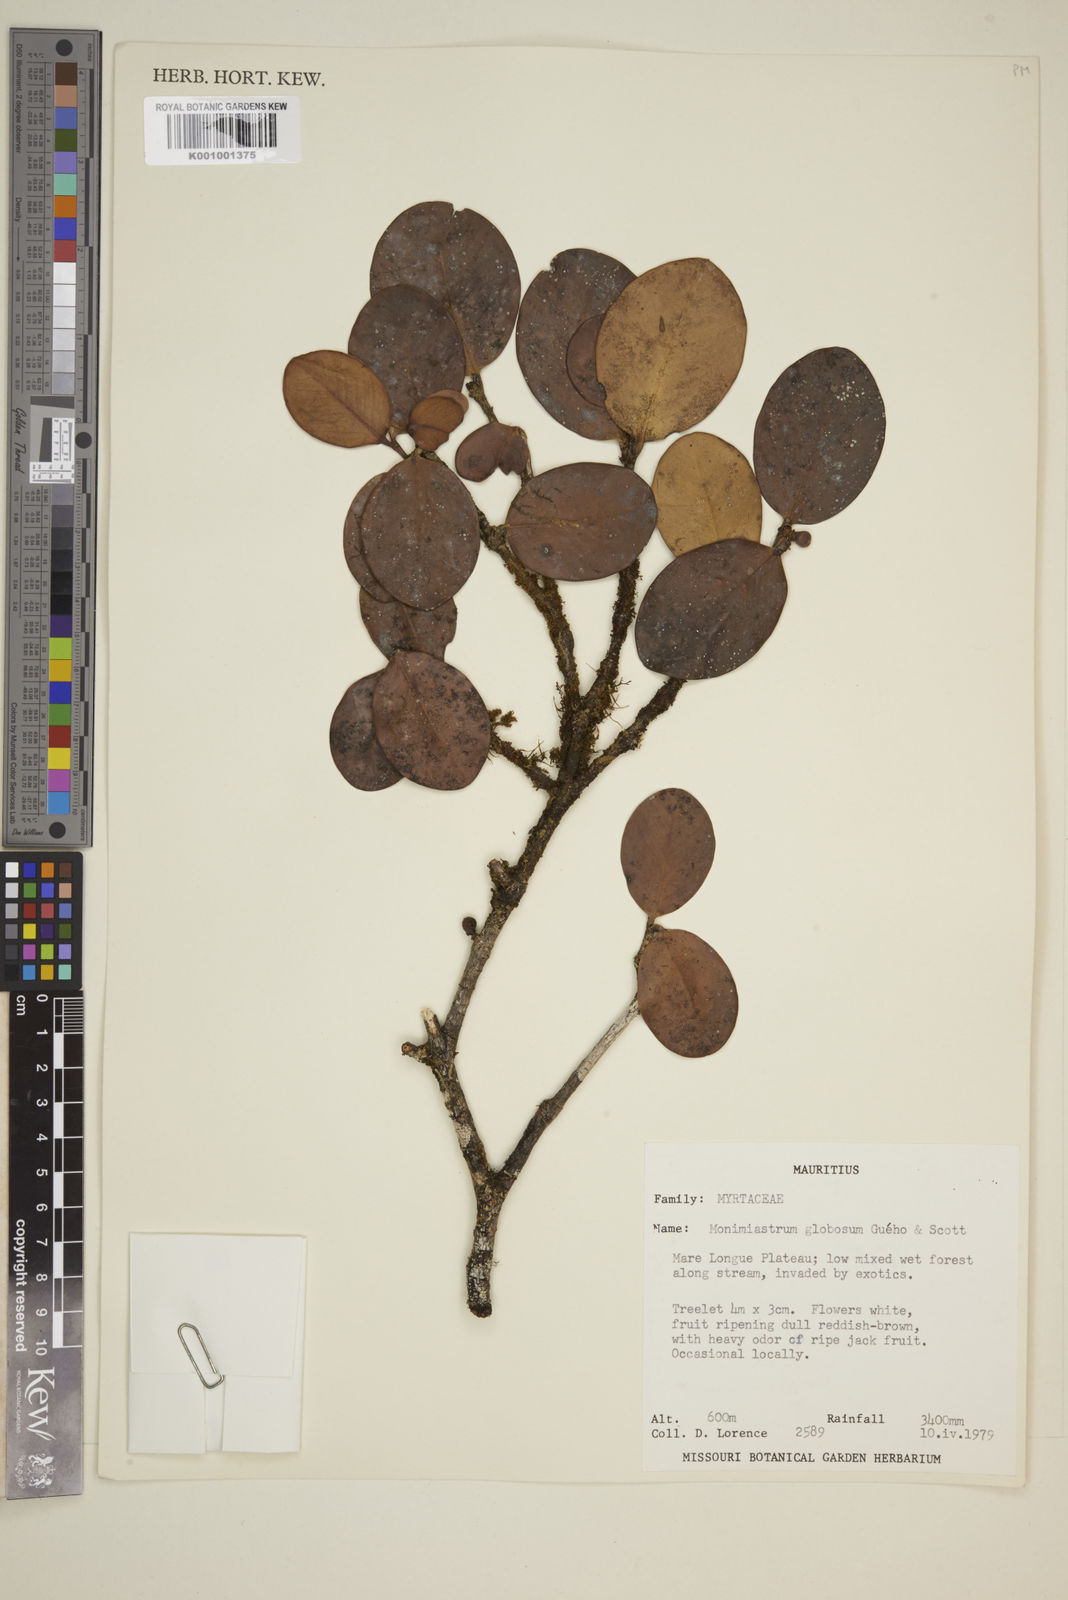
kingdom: Plantae
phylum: Tracheophyta
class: Magnoliopsida
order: Myrtales
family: Myrtaceae
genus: Eugenia
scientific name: Eugenia kanakana
